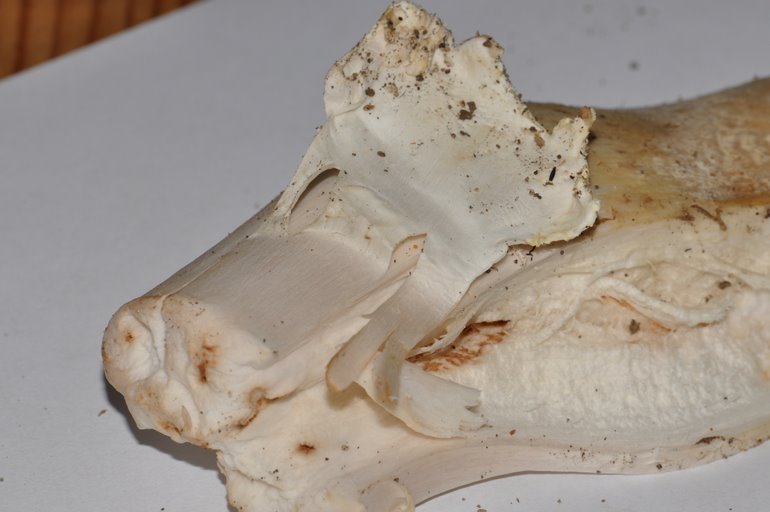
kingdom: Fungi
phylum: Basidiomycota
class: Agaricomycetes
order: Agaricales
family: Agaricaceae
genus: Agaricus
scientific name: Agaricus arvensis
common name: ager-champignon
